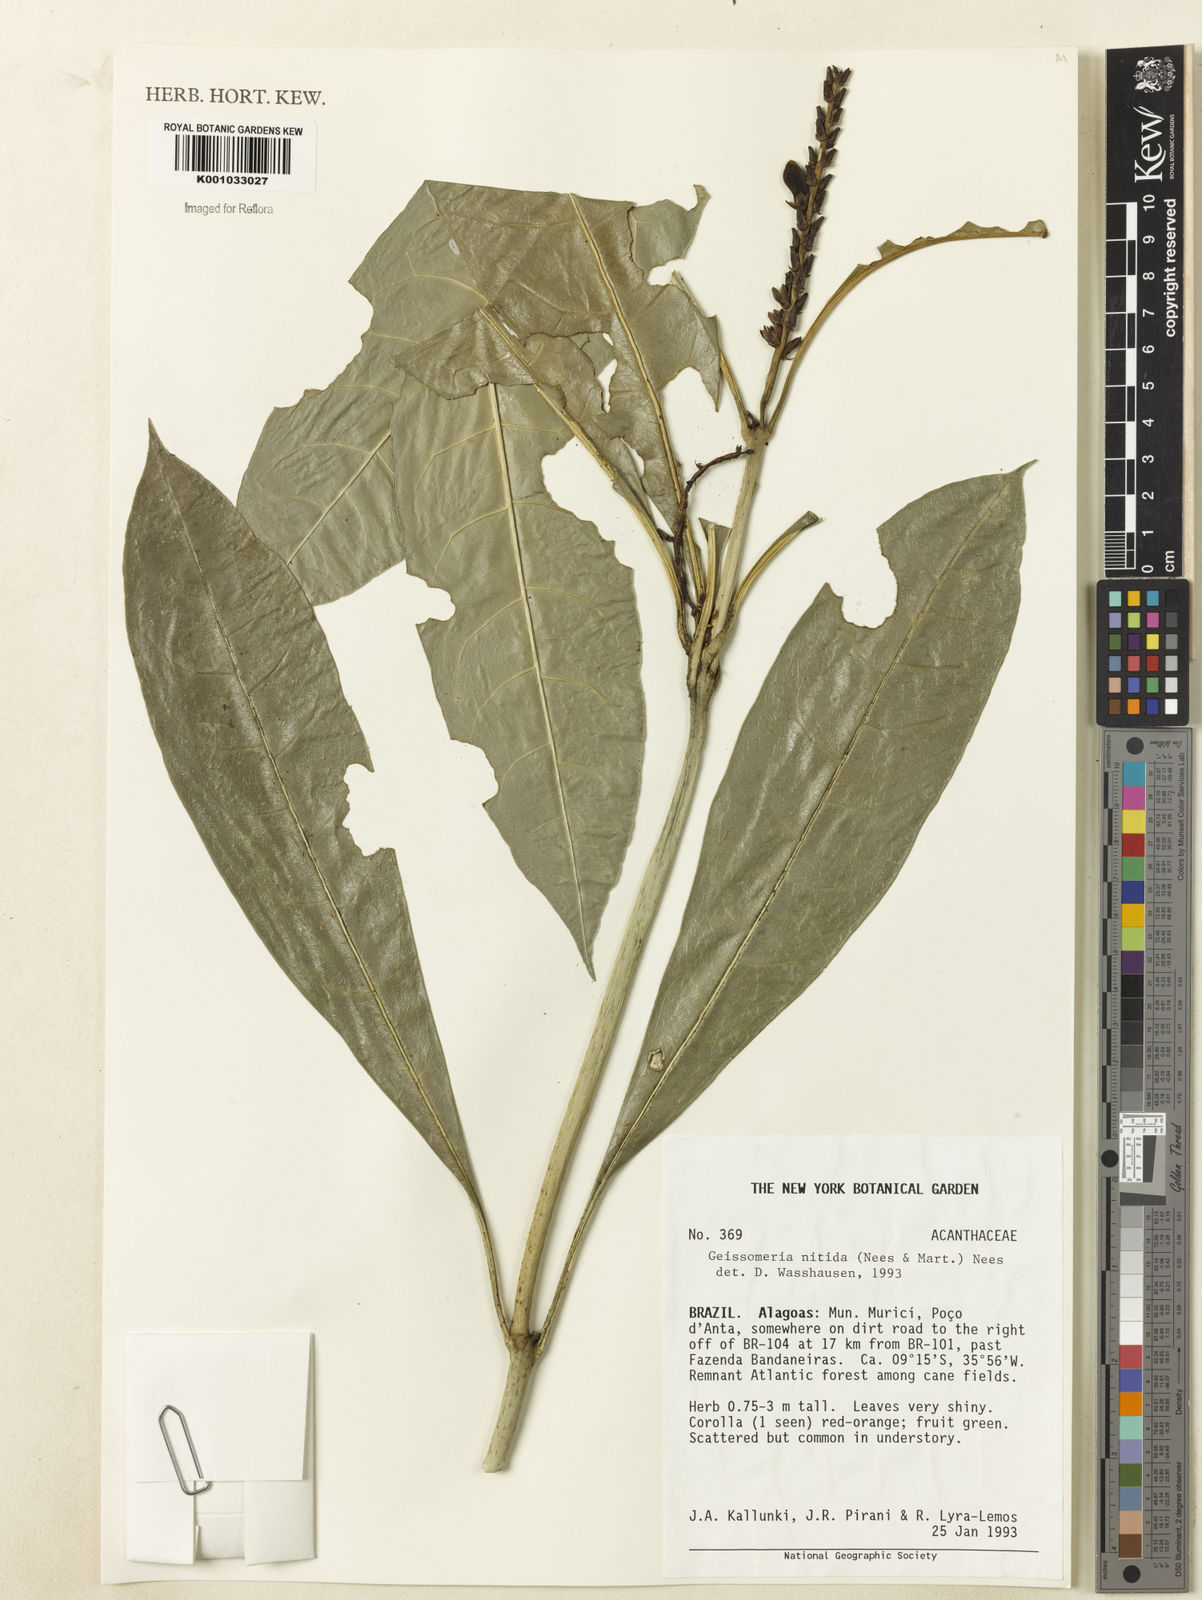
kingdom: Plantae
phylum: Tracheophyta
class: Magnoliopsida
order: Lamiales
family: Acanthaceae
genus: Aphelandra
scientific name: Aphelandra nitida
